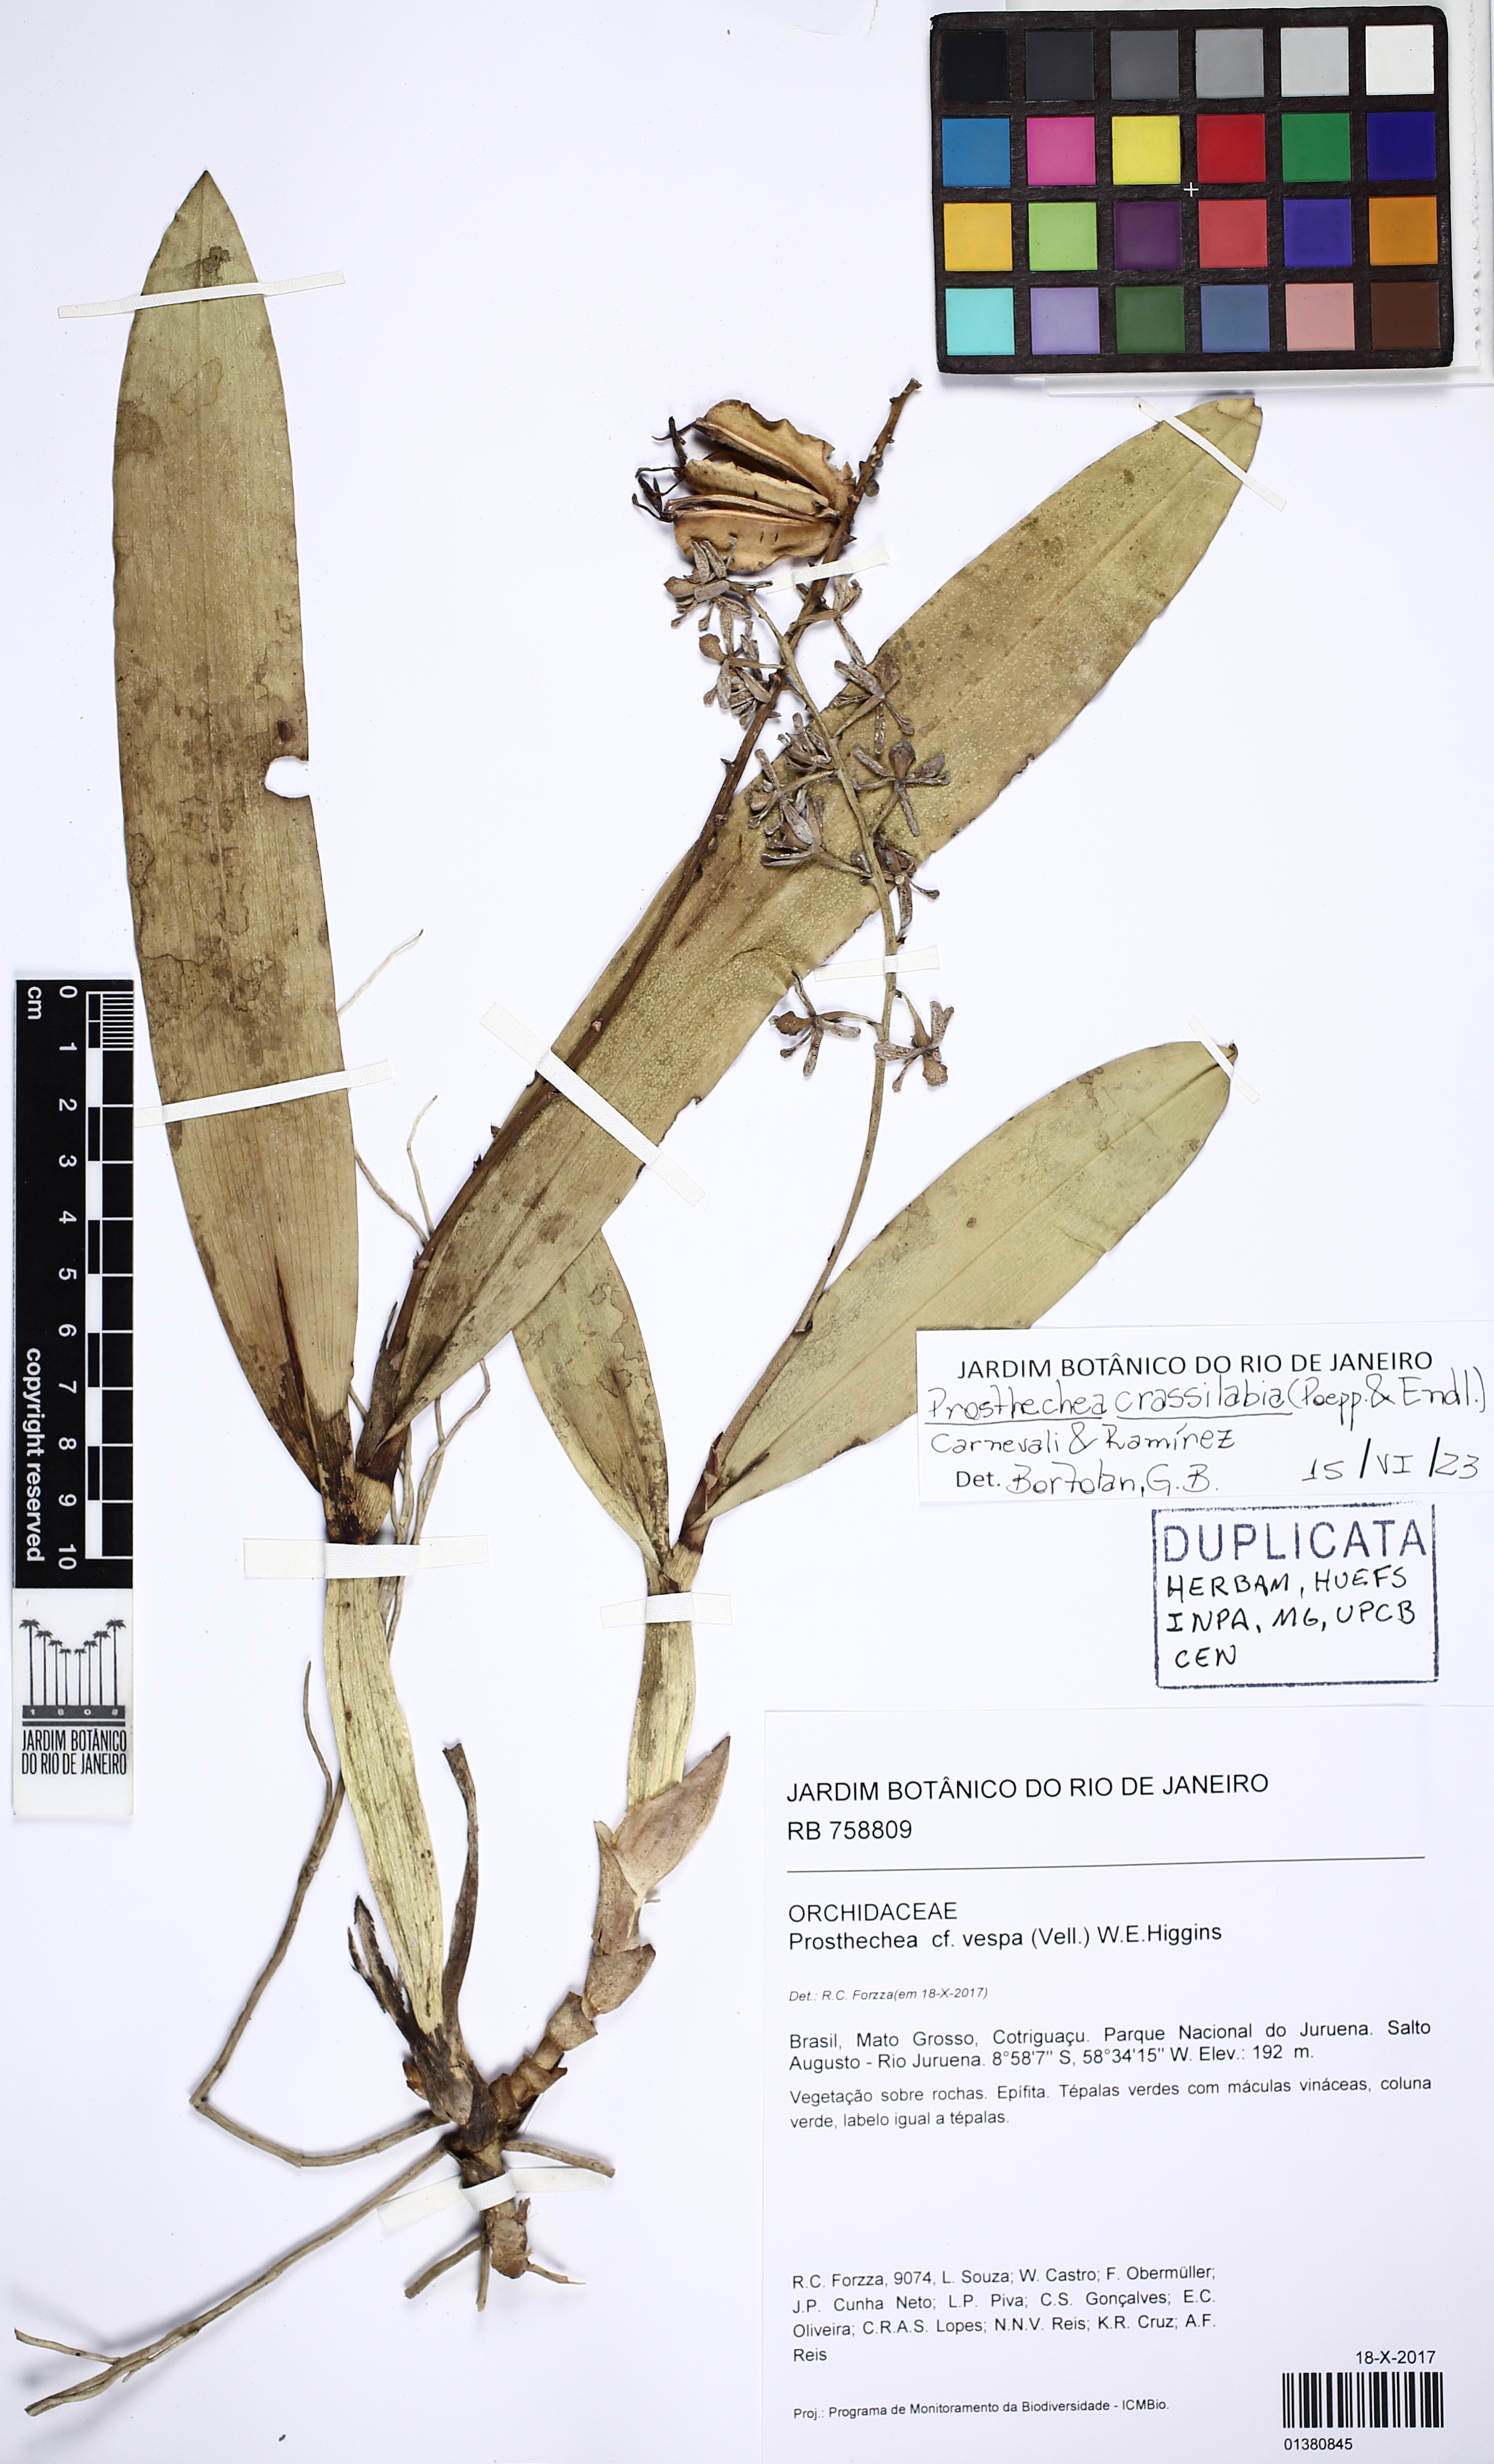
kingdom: Plantae
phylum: Tracheophyta
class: Liliopsida
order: Asparagales
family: Orchidaceae
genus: Prosthechea
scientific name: Prosthechea crassilabia
